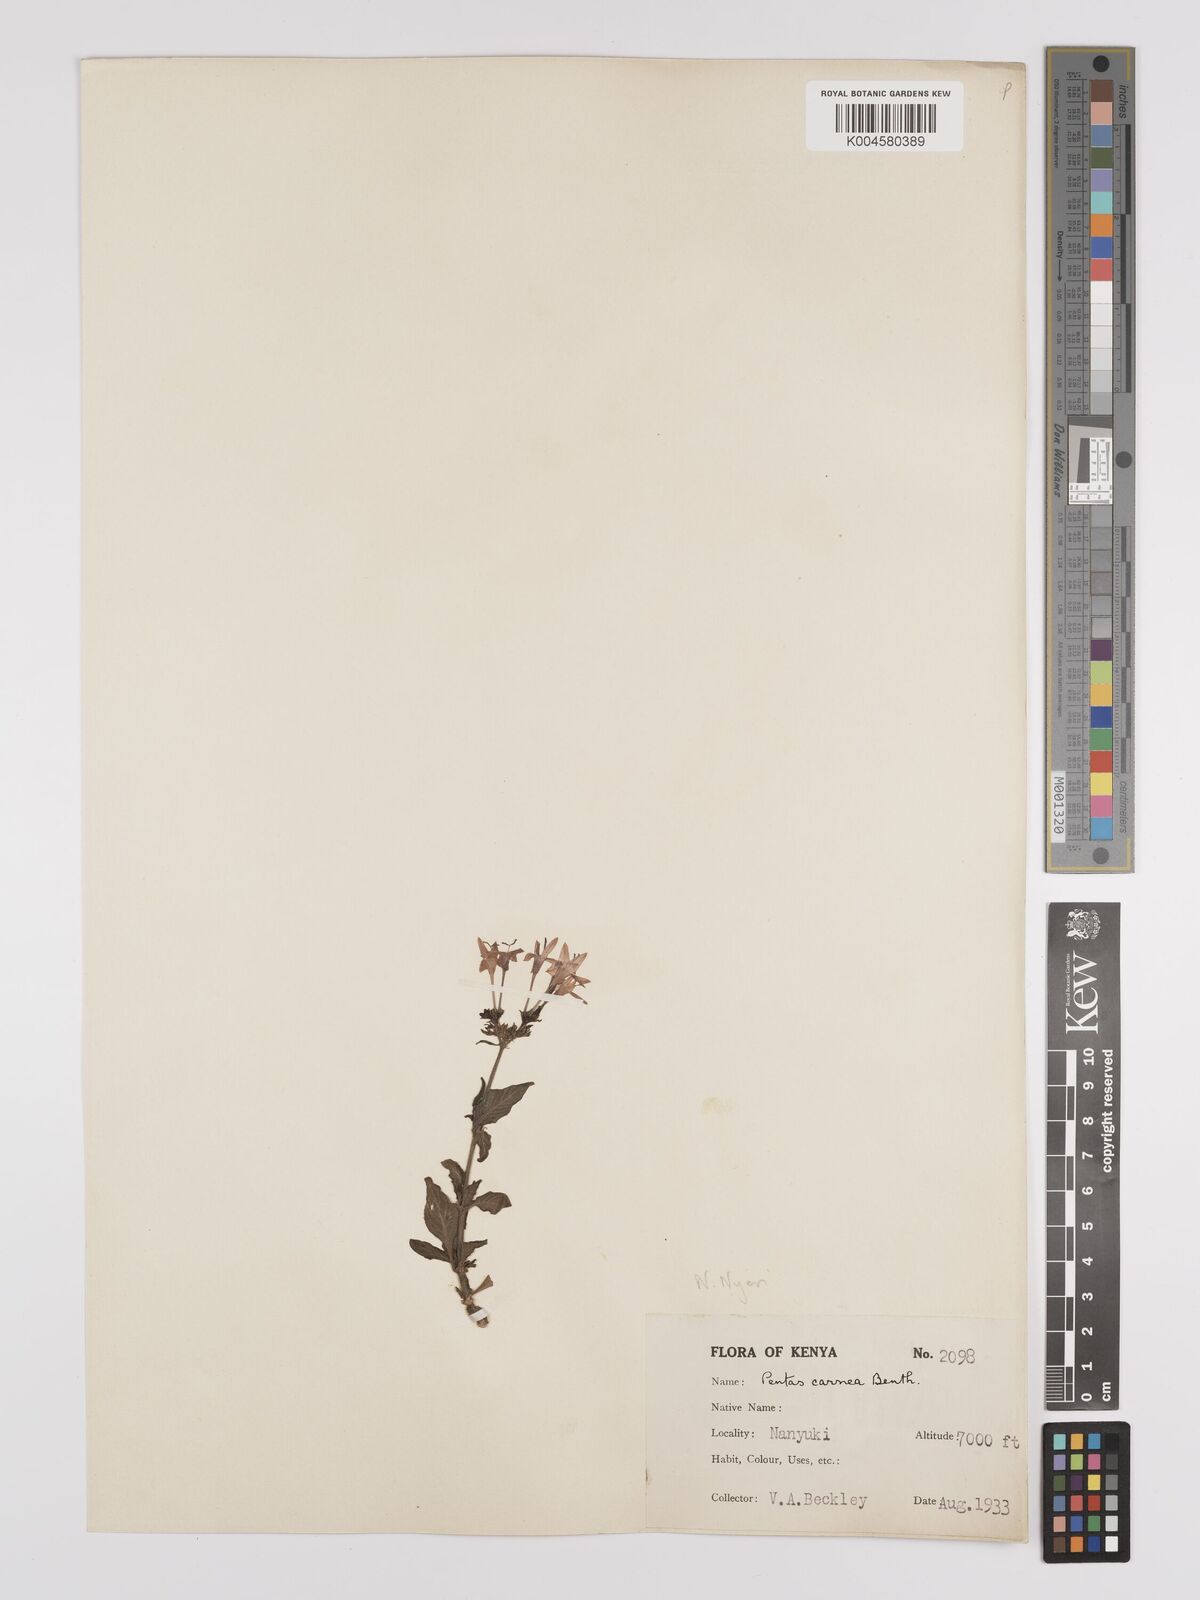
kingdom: Plantae
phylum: Tracheophyta
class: Magnoliopsida
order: Gentianales
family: Rubiaceae
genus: Pentas
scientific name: Pentas
